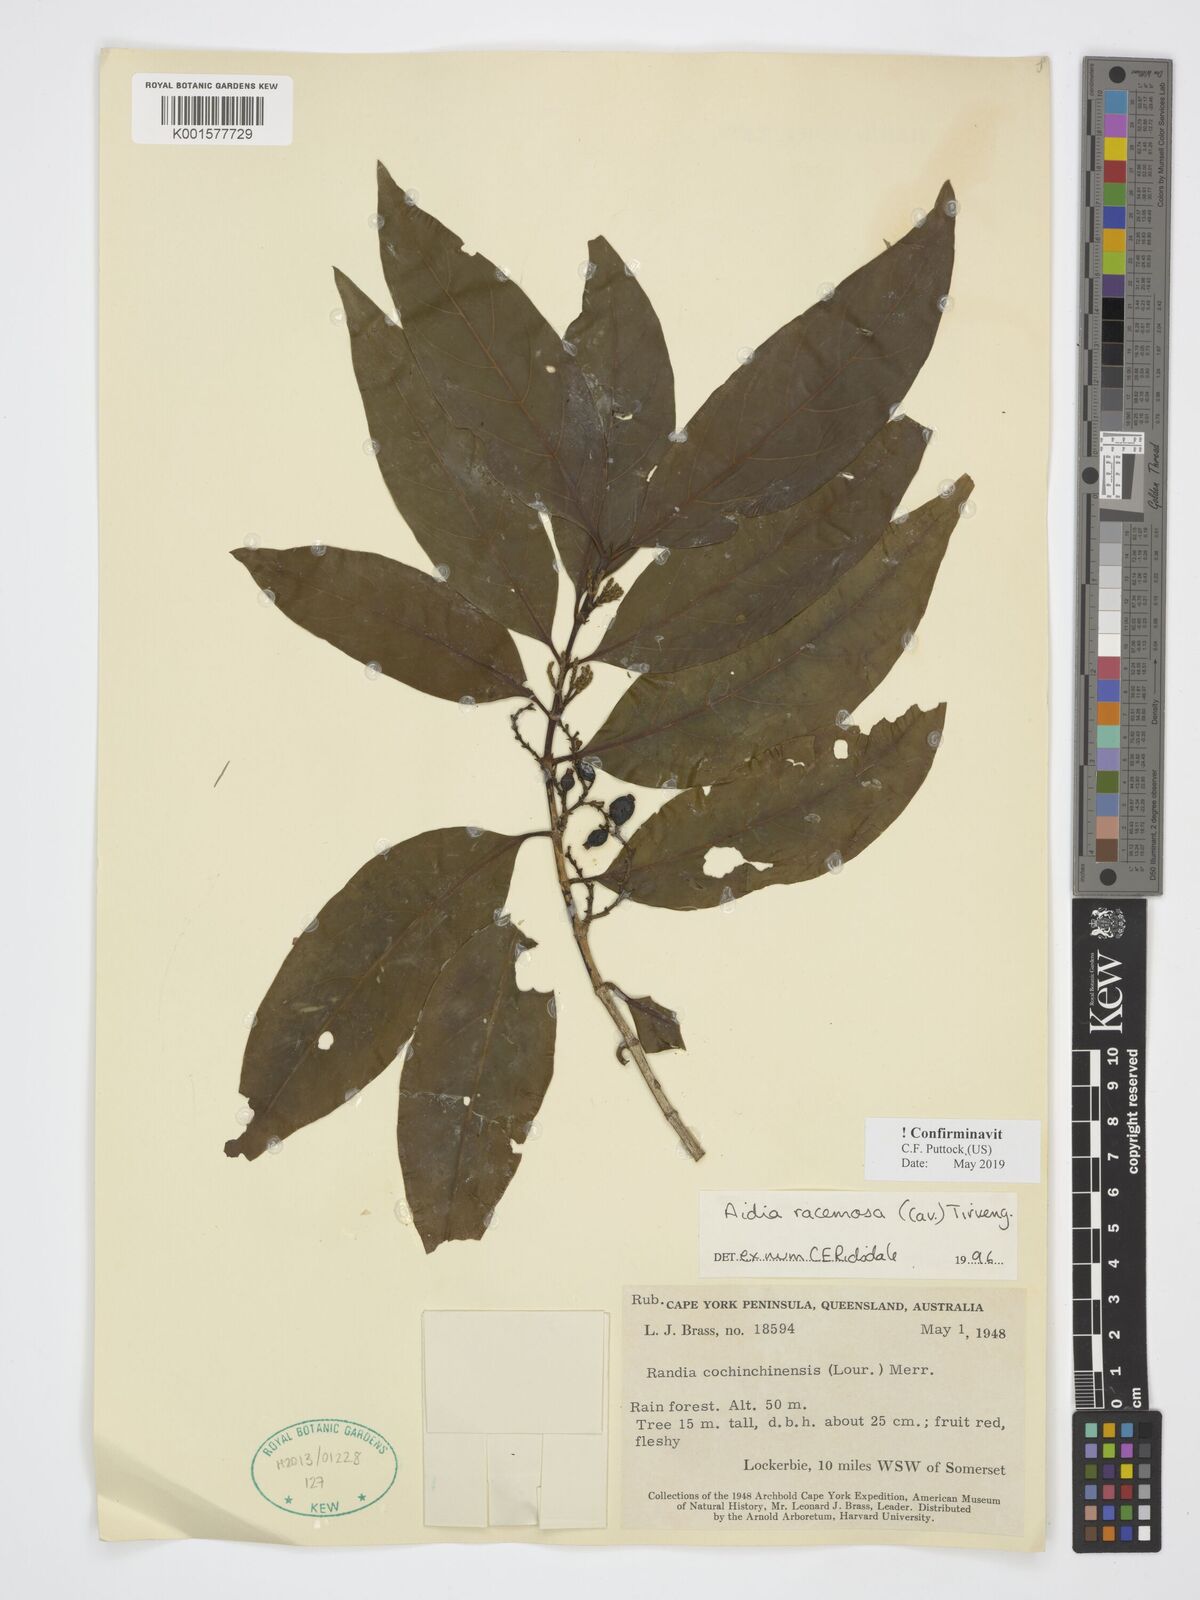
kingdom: Plantae
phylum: Tracheophyta
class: Magnoliopsida
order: Gentianales
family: Rubiaceae
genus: Aidia
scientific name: Aidia racemosa
